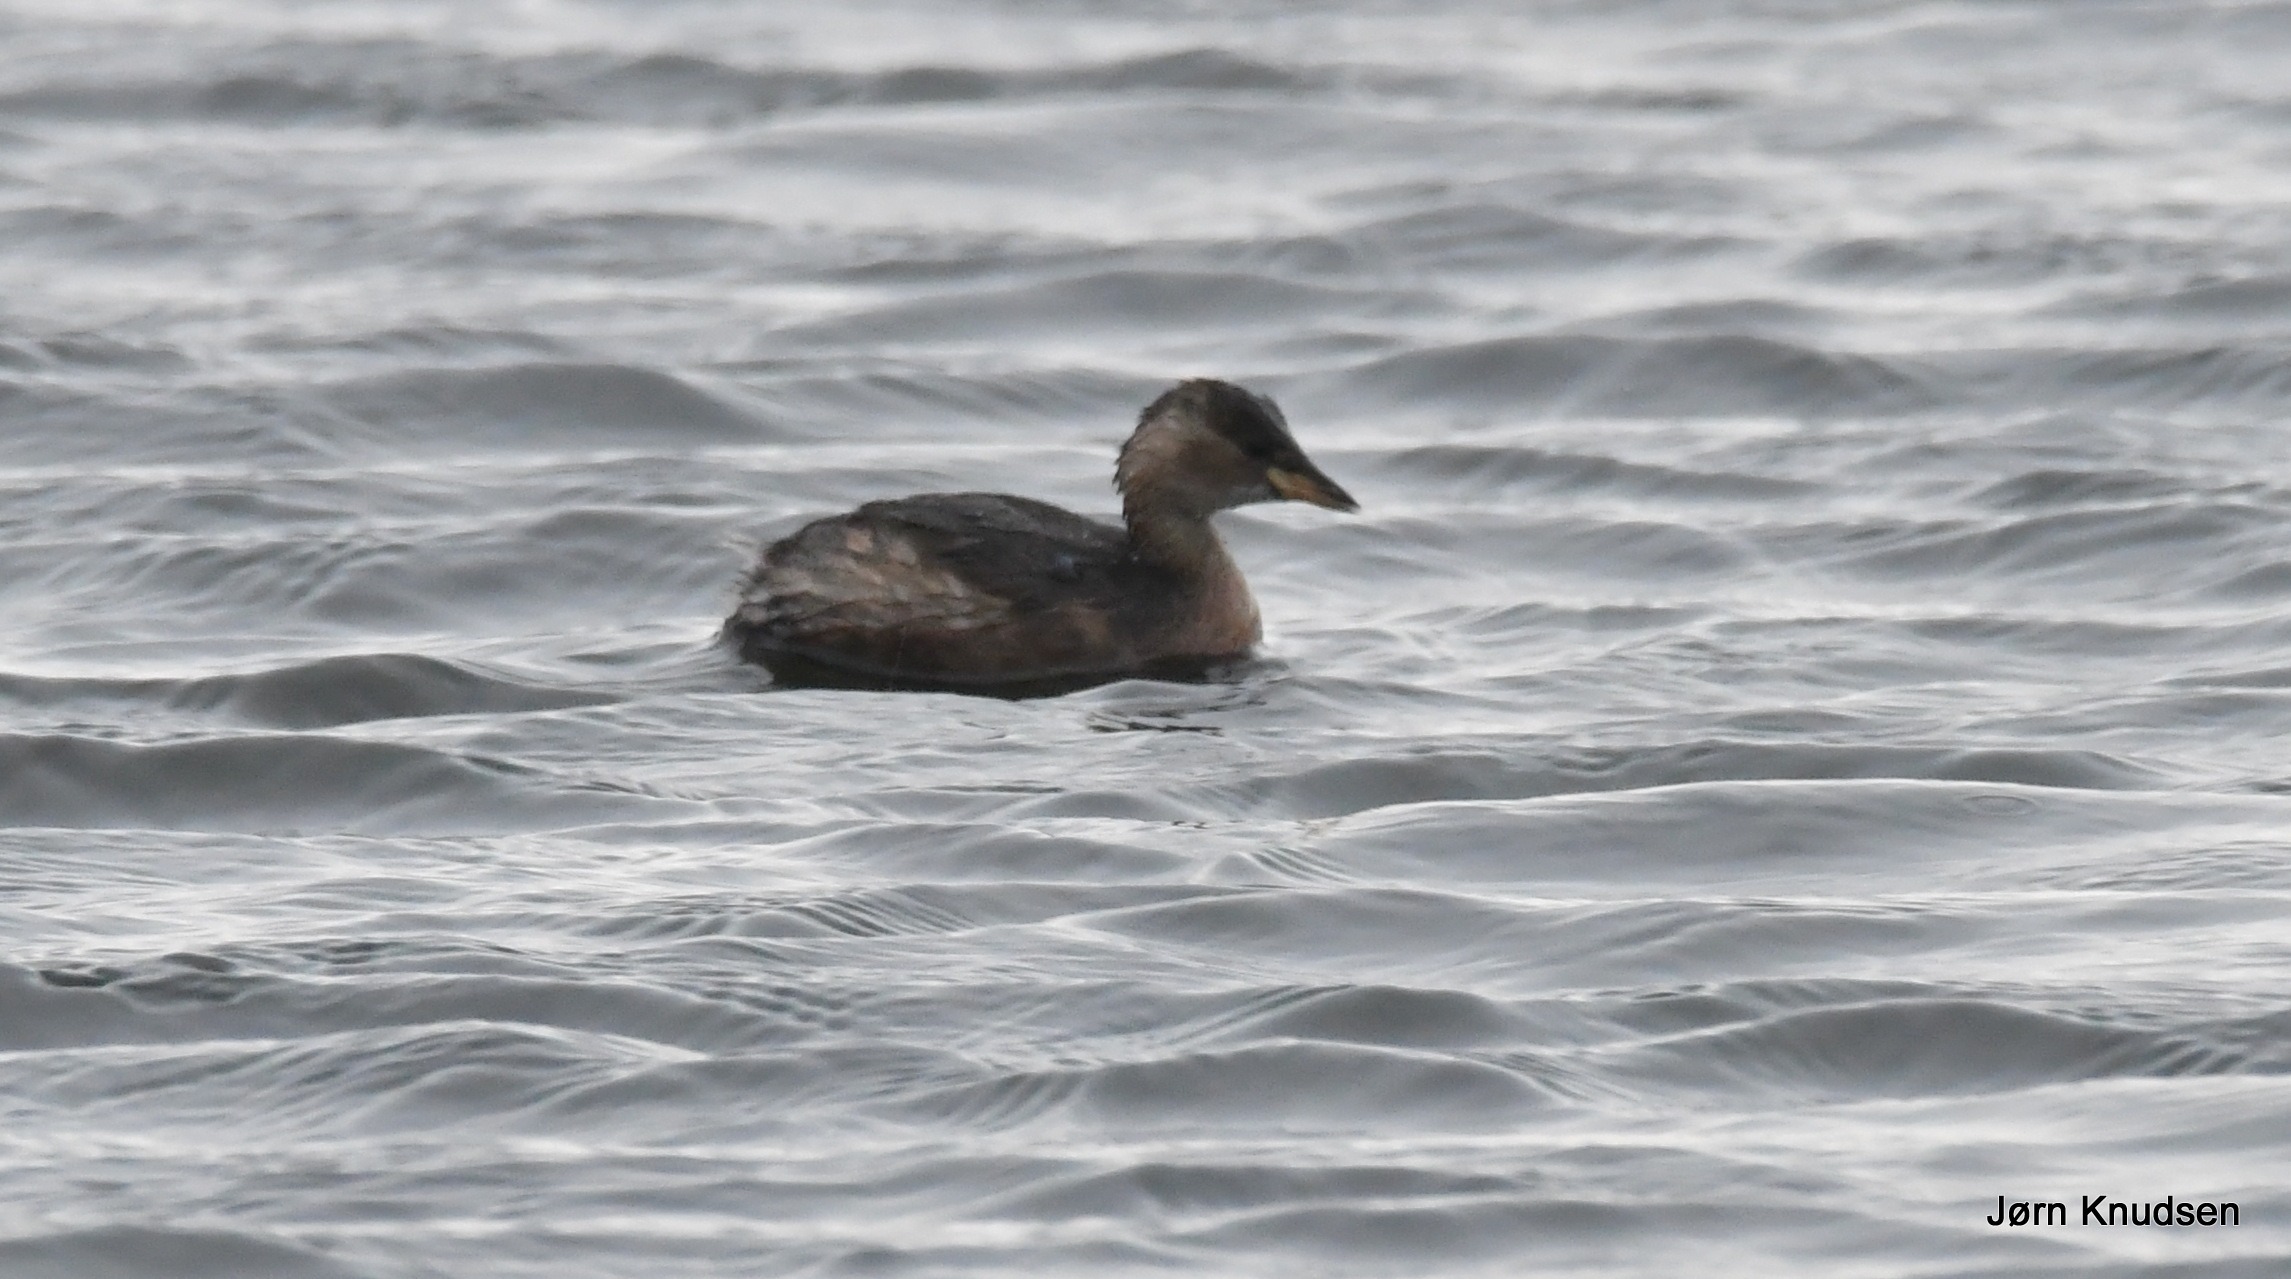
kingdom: Animalia
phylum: Chordata
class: Aves
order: Podicipediformes
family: Podicipedidae
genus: Tachybaptus
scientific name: Tachybaptus ruficollis
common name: Lille lappedykker
